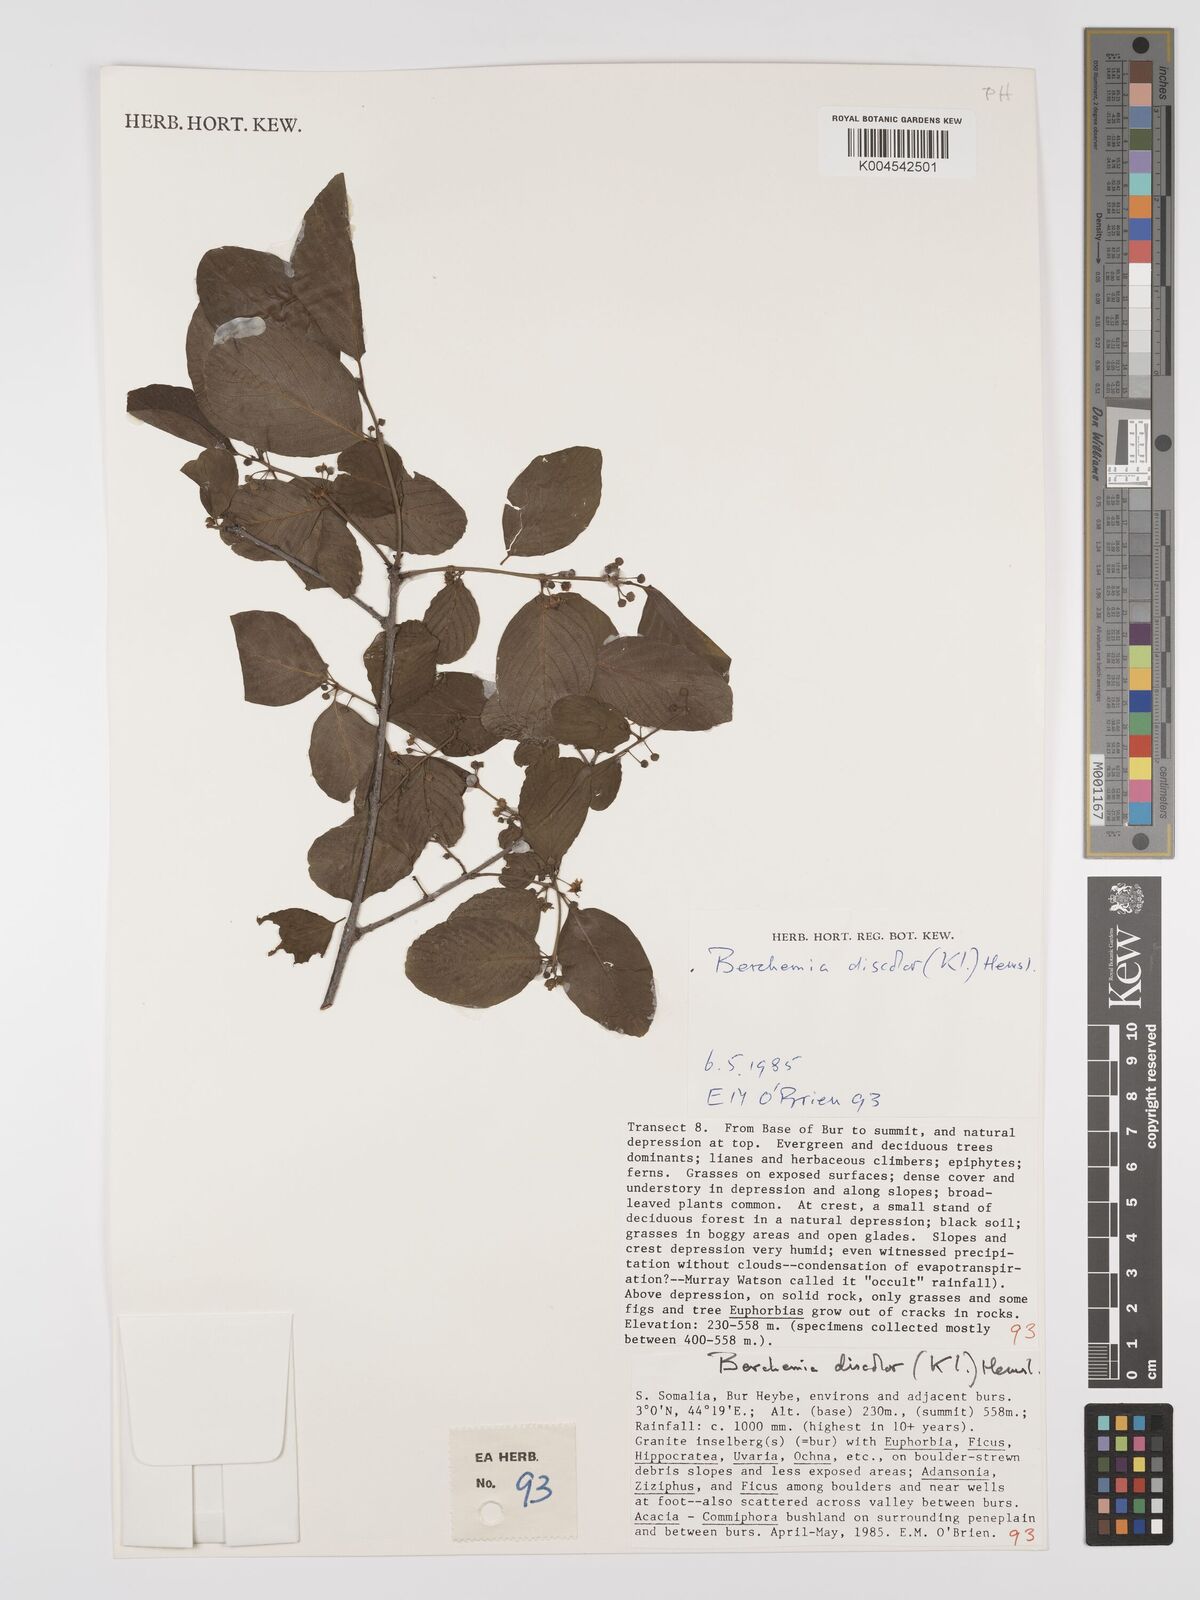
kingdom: Plantae
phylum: Tracheophyta
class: Magnoliopsida
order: Rosales
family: Rhamnaceae
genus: Phyllogeiton
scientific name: Phyllogeiton discolor
